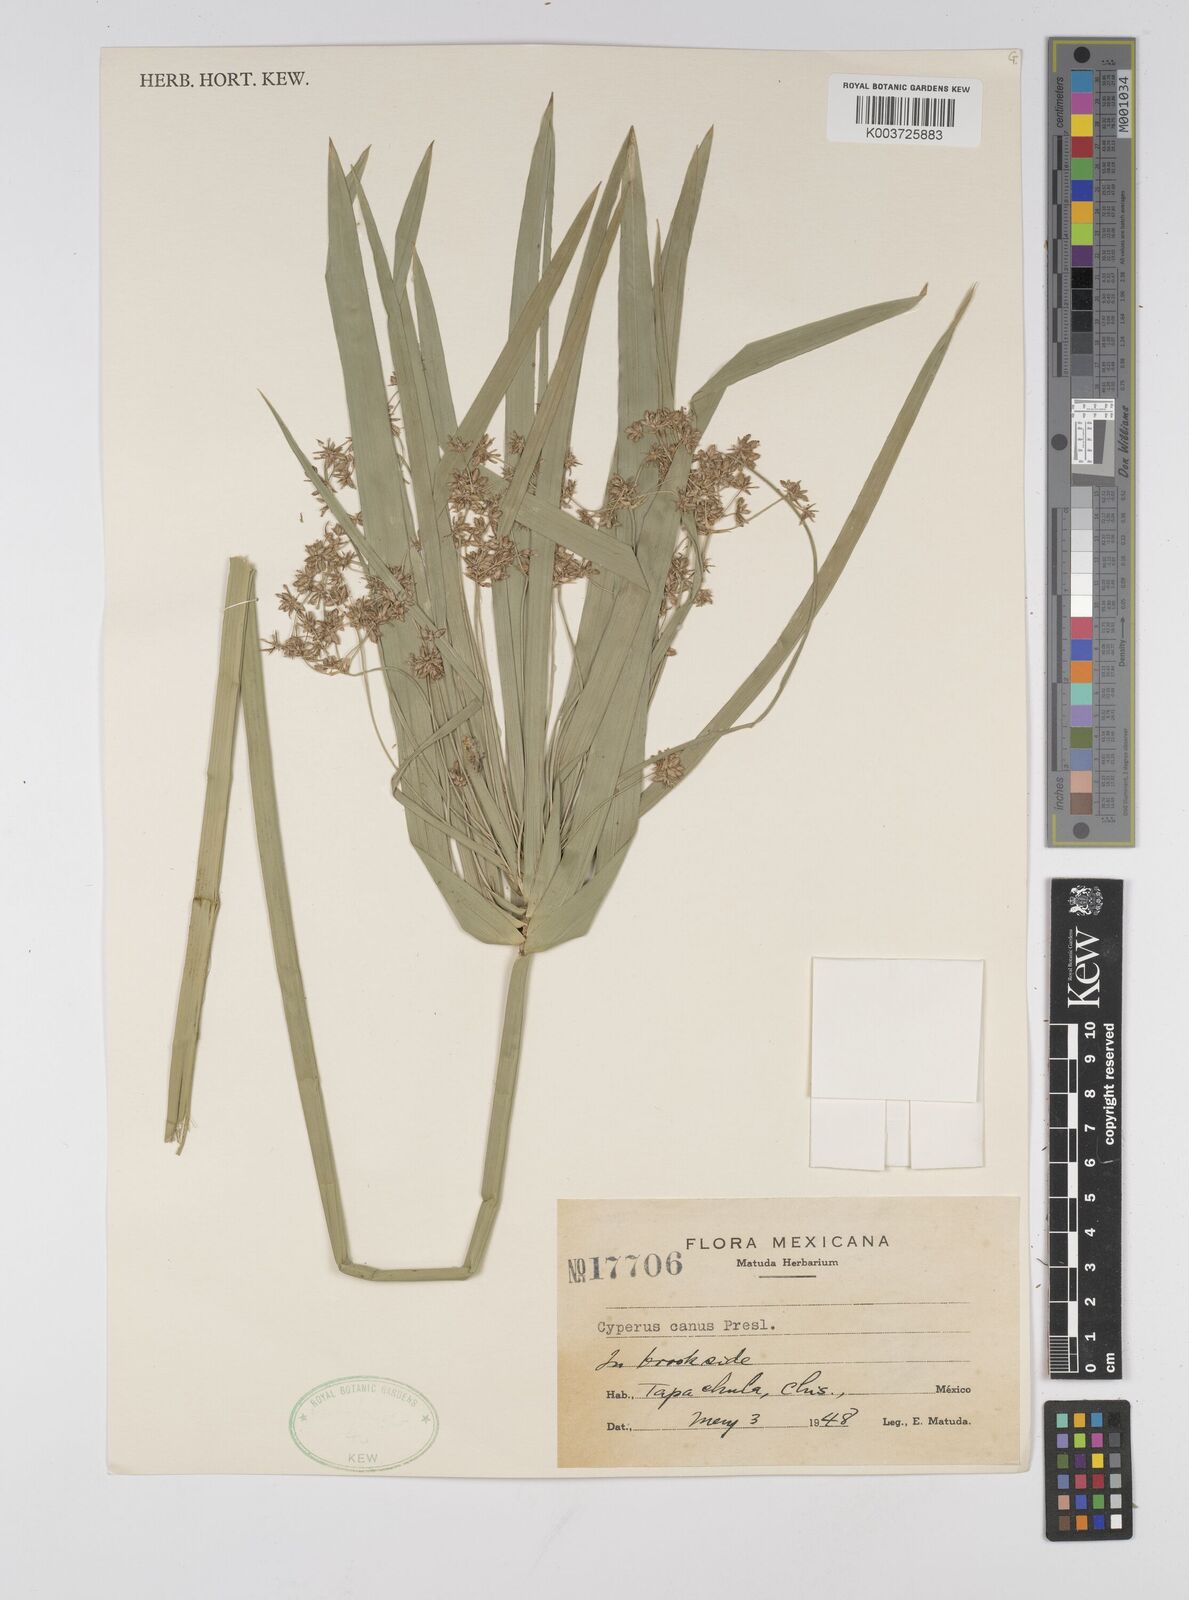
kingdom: Plantae
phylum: Tracheophyta
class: Liliopsida
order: Poales
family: Cyperaceae
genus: Cyperus
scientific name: Cyperus canus
